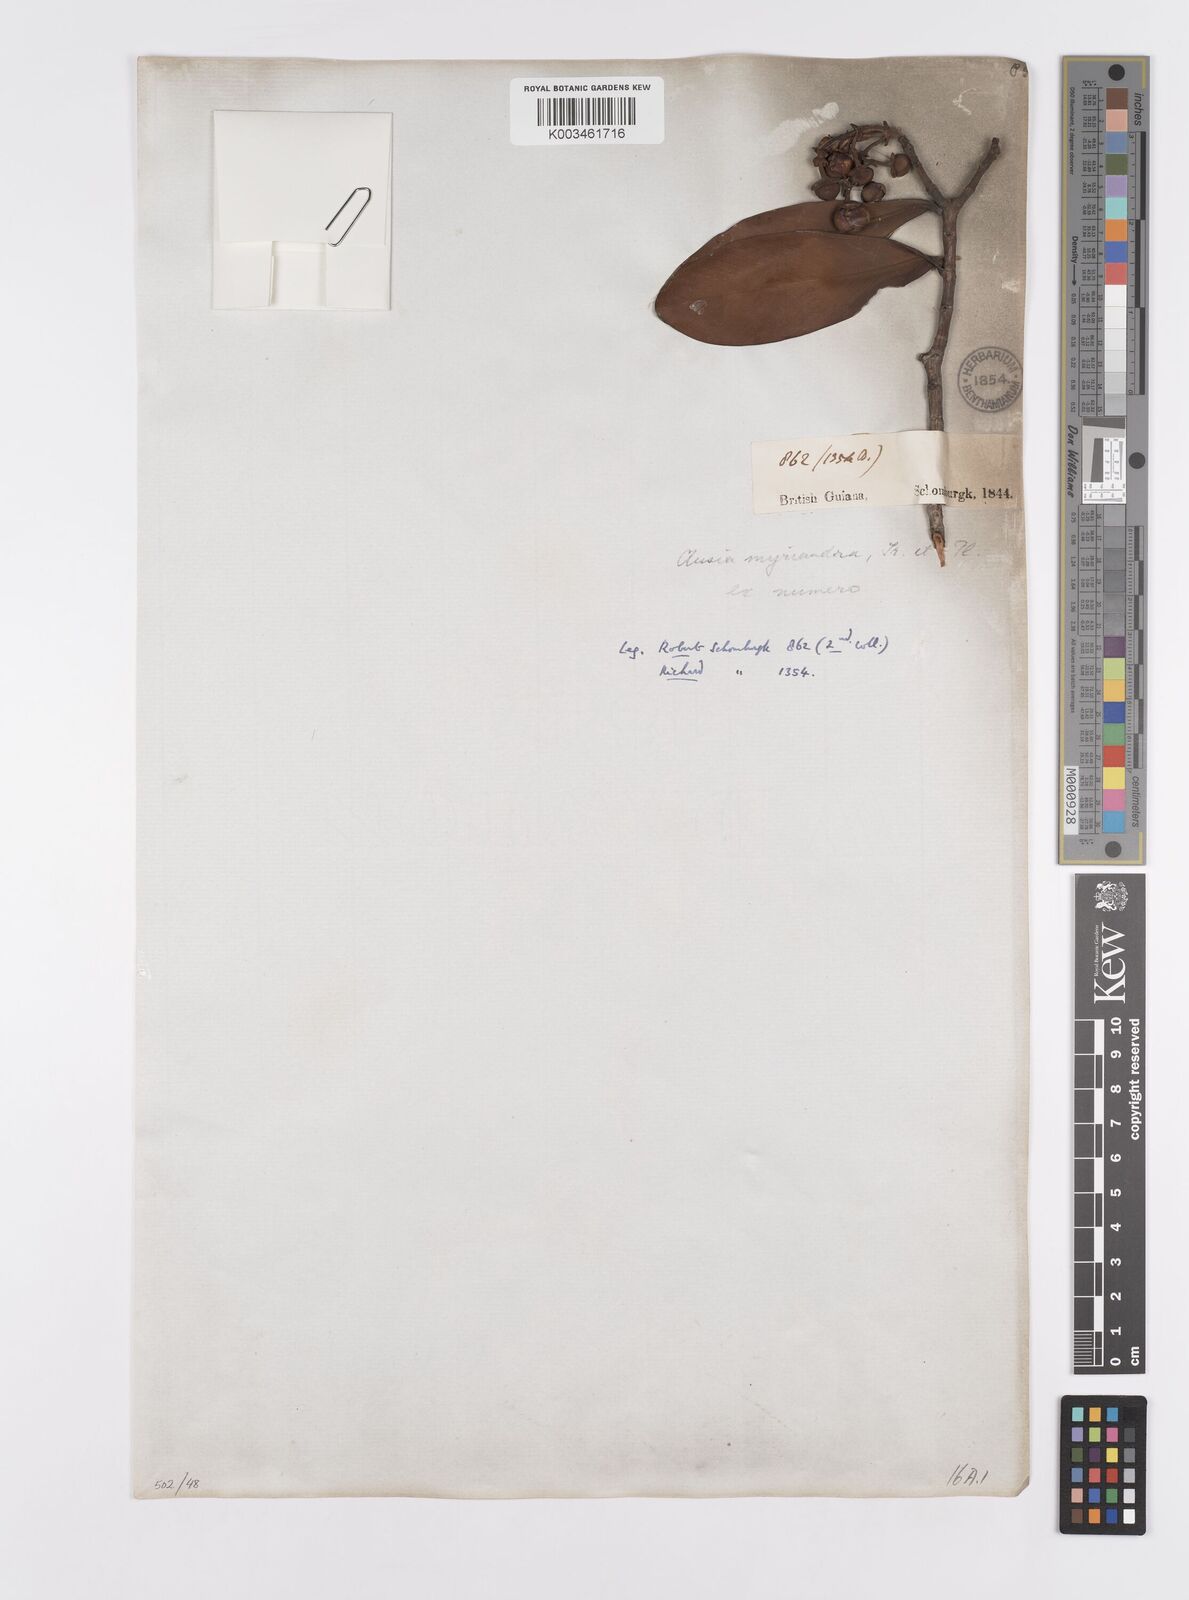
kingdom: Plantae
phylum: Tracheophyta
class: Magnoliopsida
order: Malpighiales
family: Clusiaceae
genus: Clusia
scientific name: Clusia myriandra
